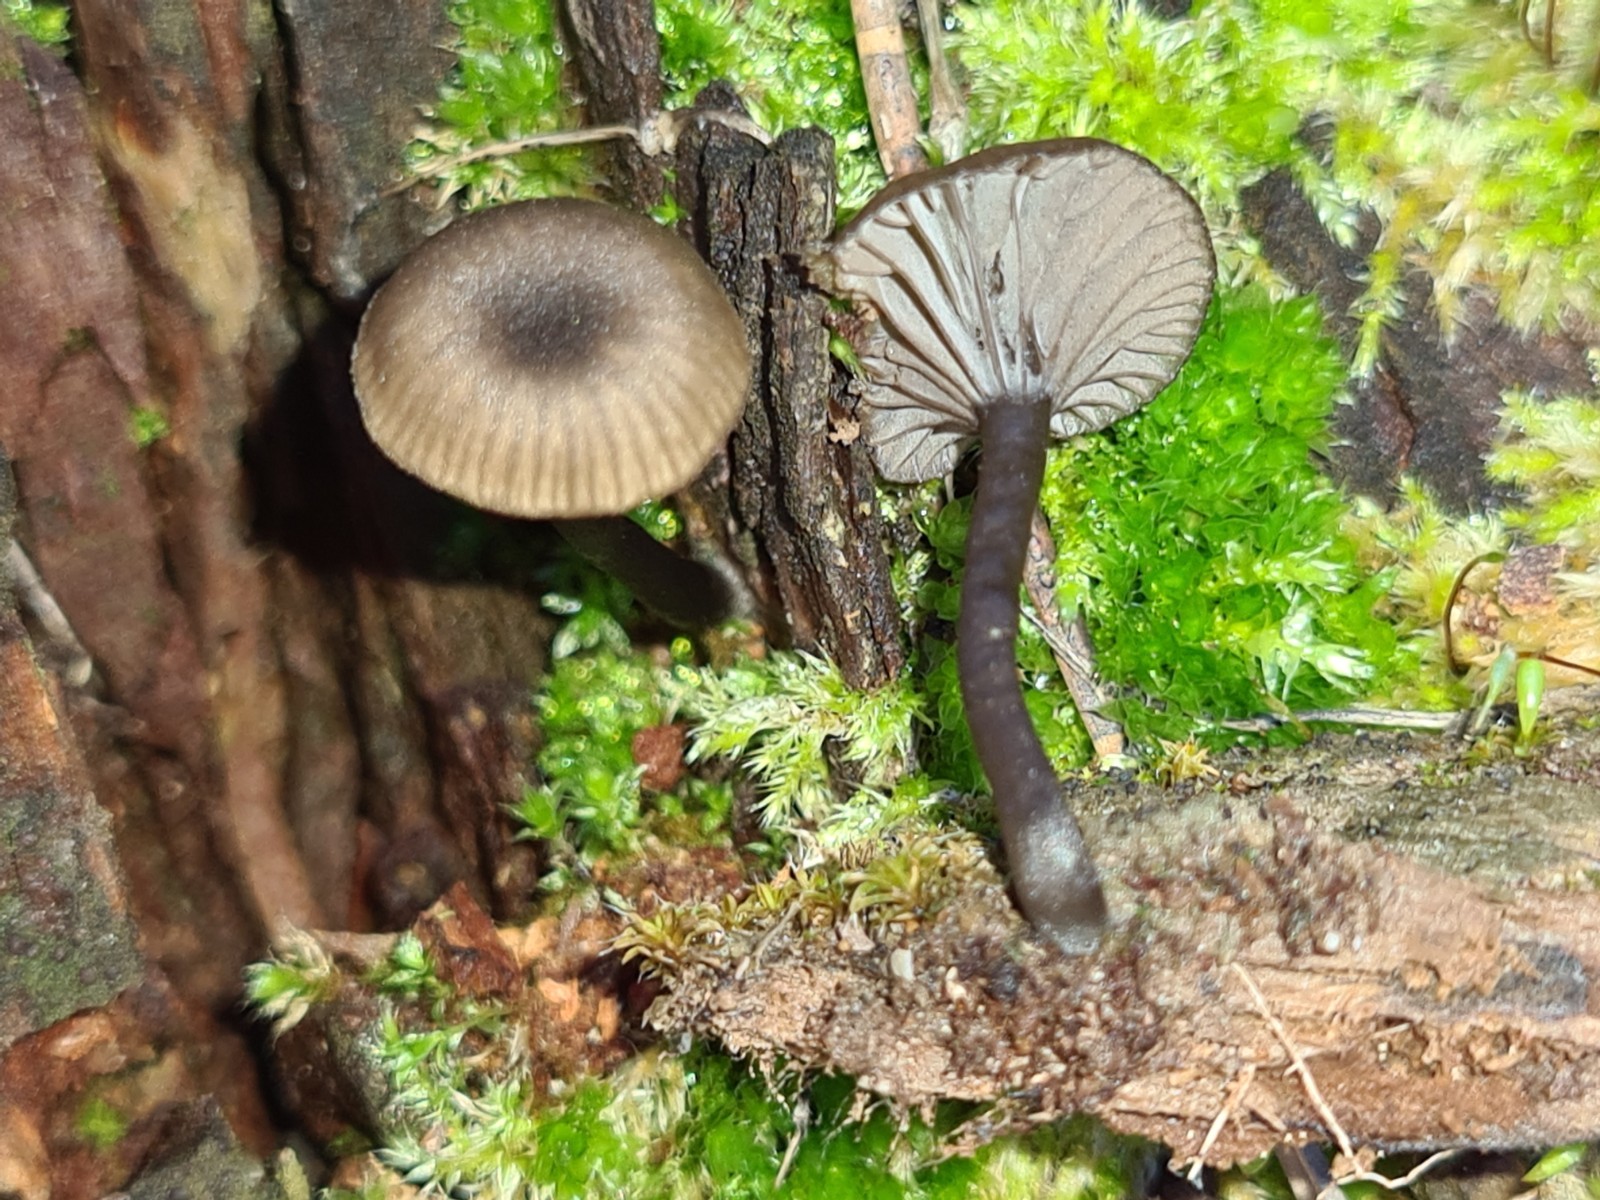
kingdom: Fungi
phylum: Basidiomycota
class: Agaricomycetes
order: Agaricales
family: Hygrophoraceae
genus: Arrhenia
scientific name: Arrhenia epichysium
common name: ved-fontænehat
